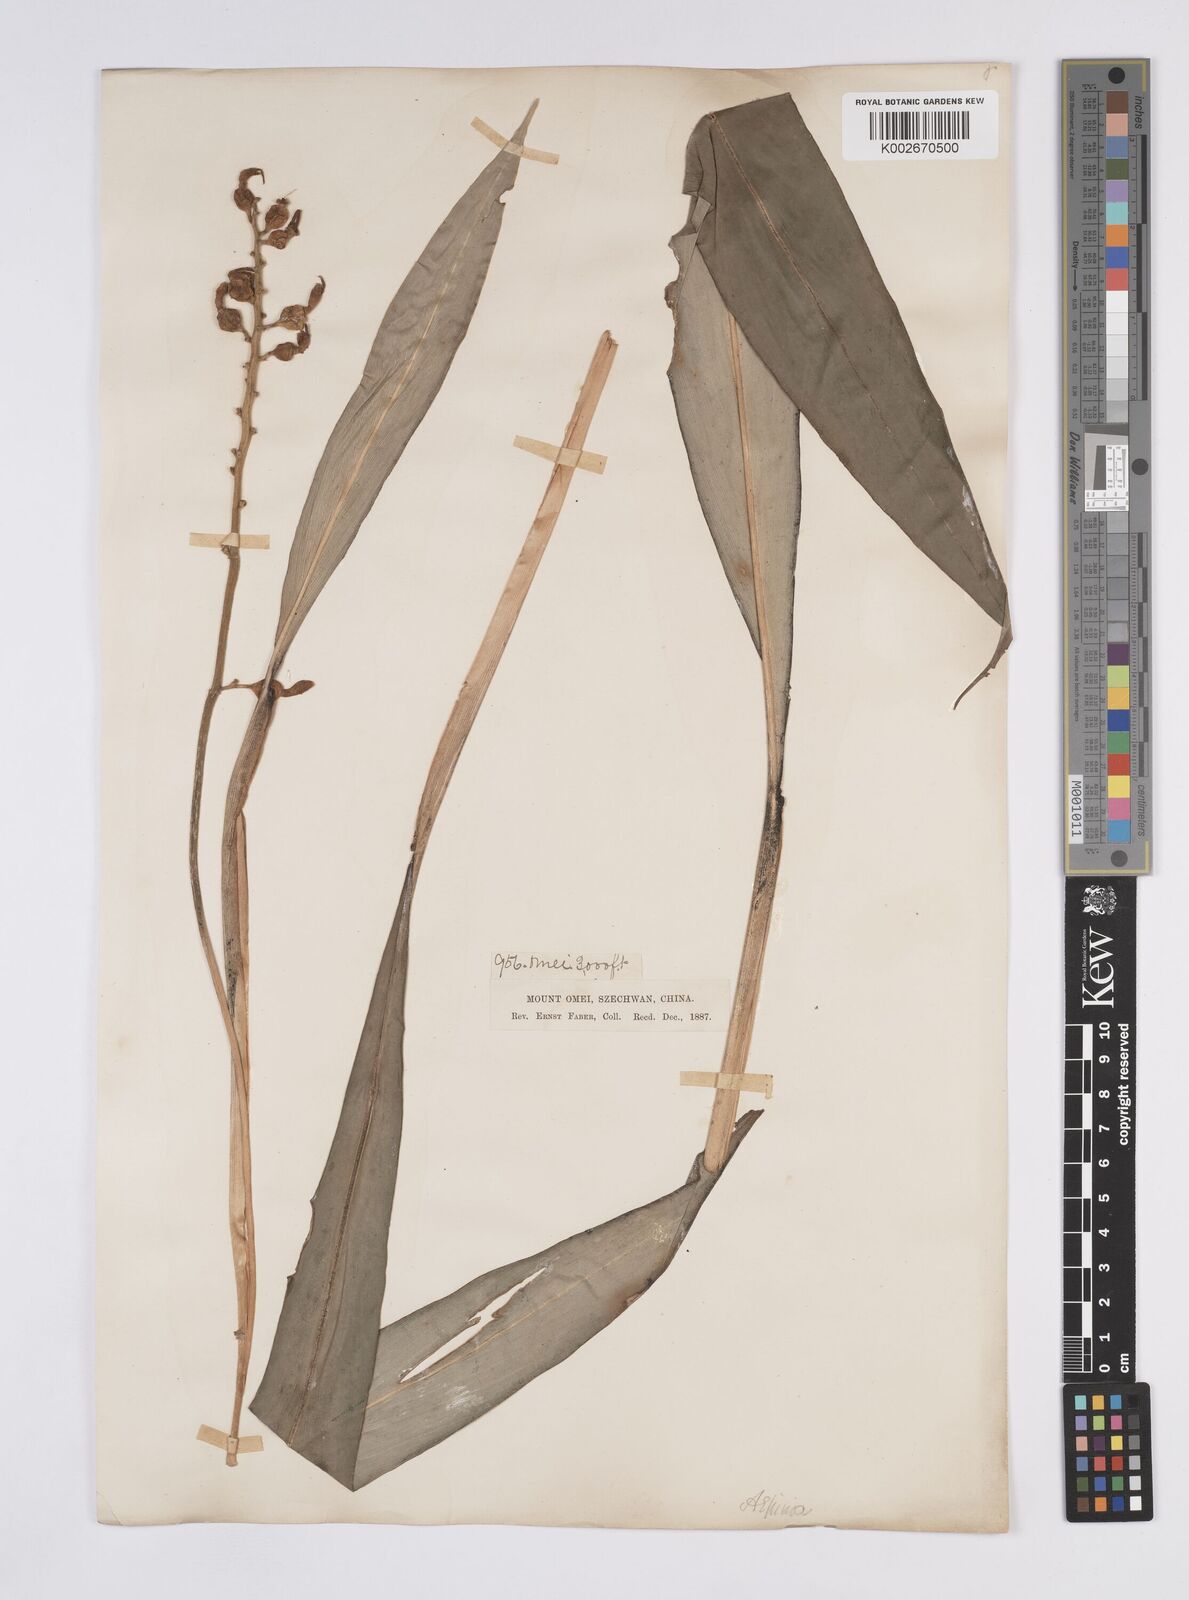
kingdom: Plantae
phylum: Tracheophyta
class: Liliopsida
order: Zingiberales
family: Zingiberaceae
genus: Alpinia
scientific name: Alpinia japonica
